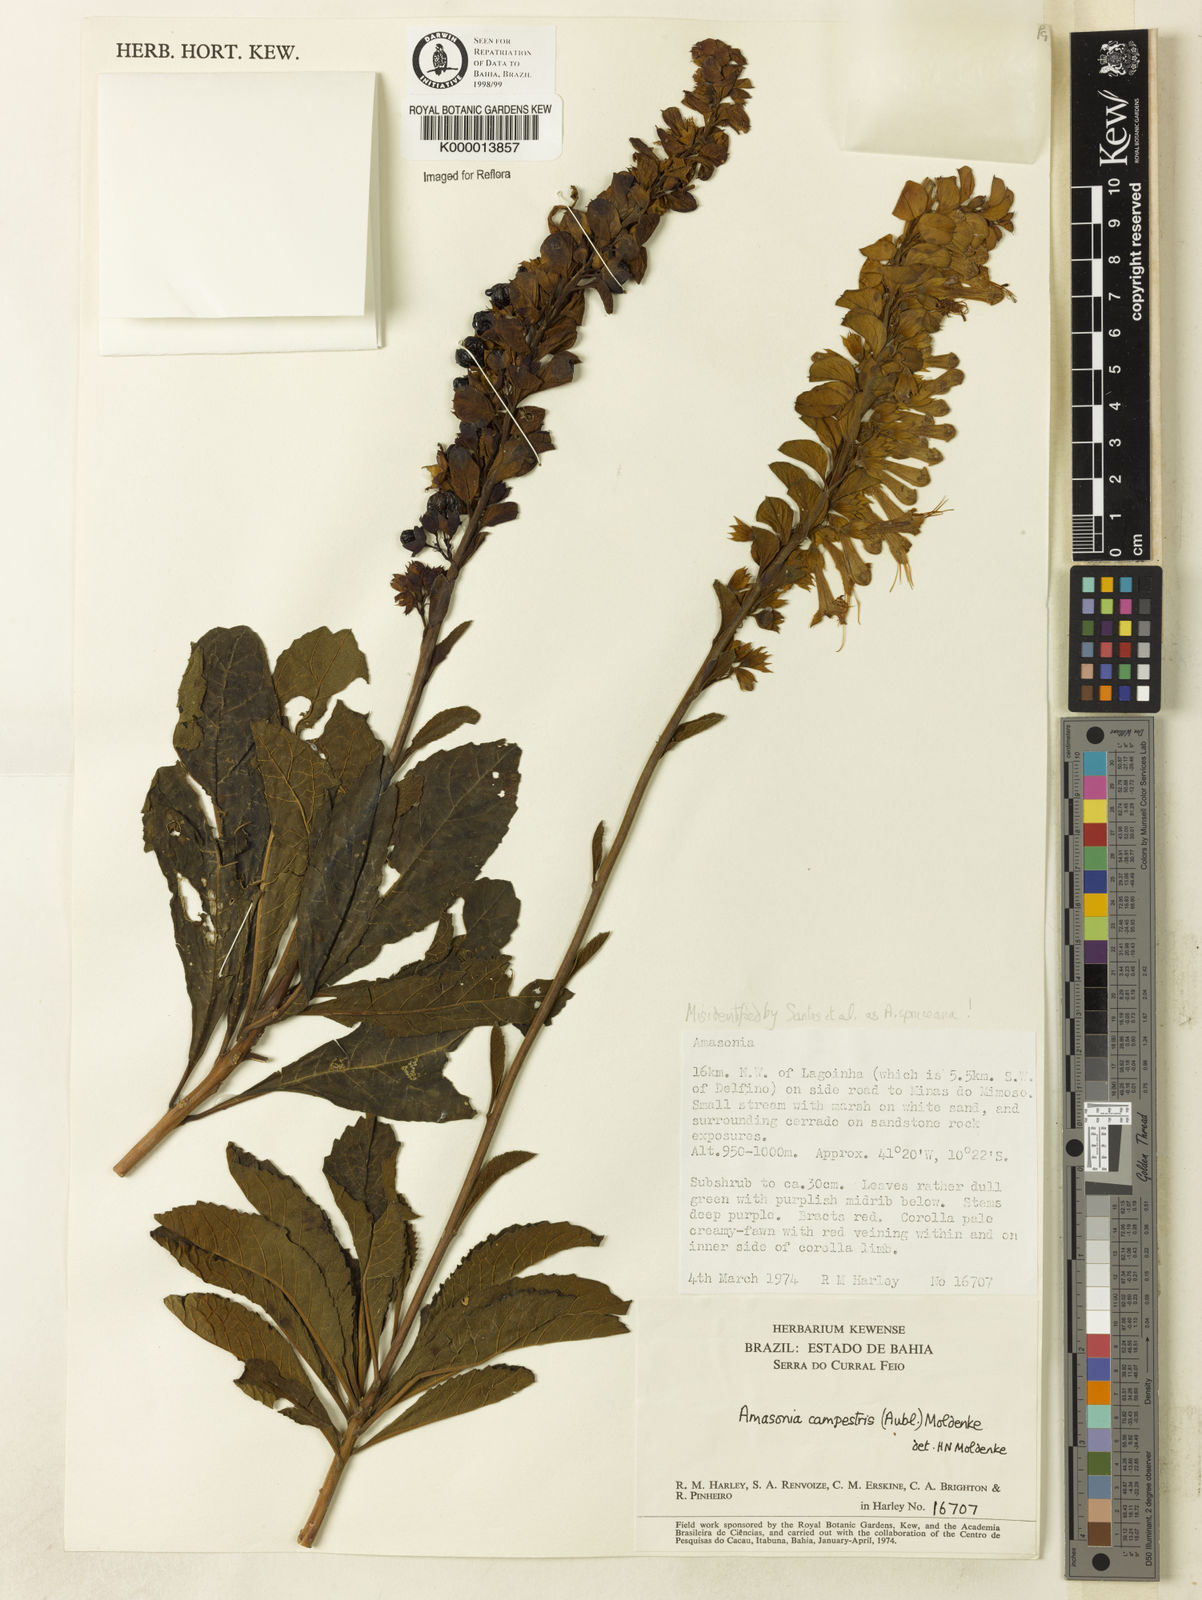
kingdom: Plantae
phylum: Tracheophyta
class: Magnoliopsida
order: Lamiales
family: Lamiaceae
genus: Amasonia
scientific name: Amasonia campestris
